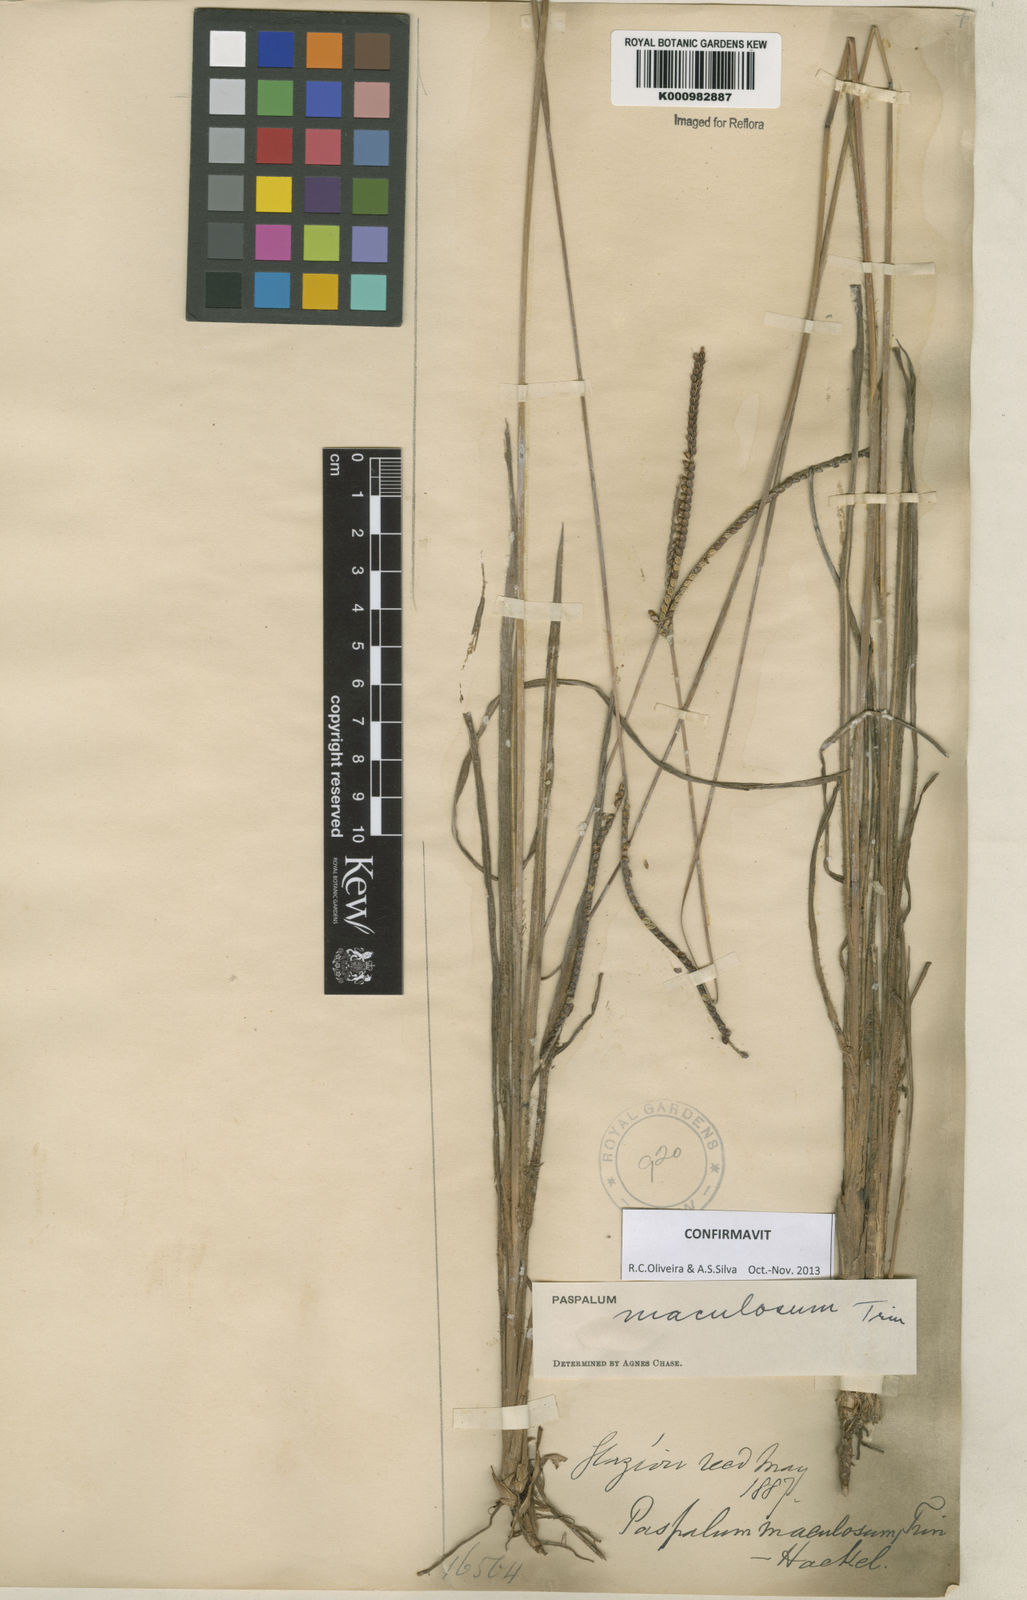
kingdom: Plantae
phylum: Tracheophyta
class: Liliopsida
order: Poales
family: Poaceae
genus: Paspalum
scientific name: Paspalum maculosum
